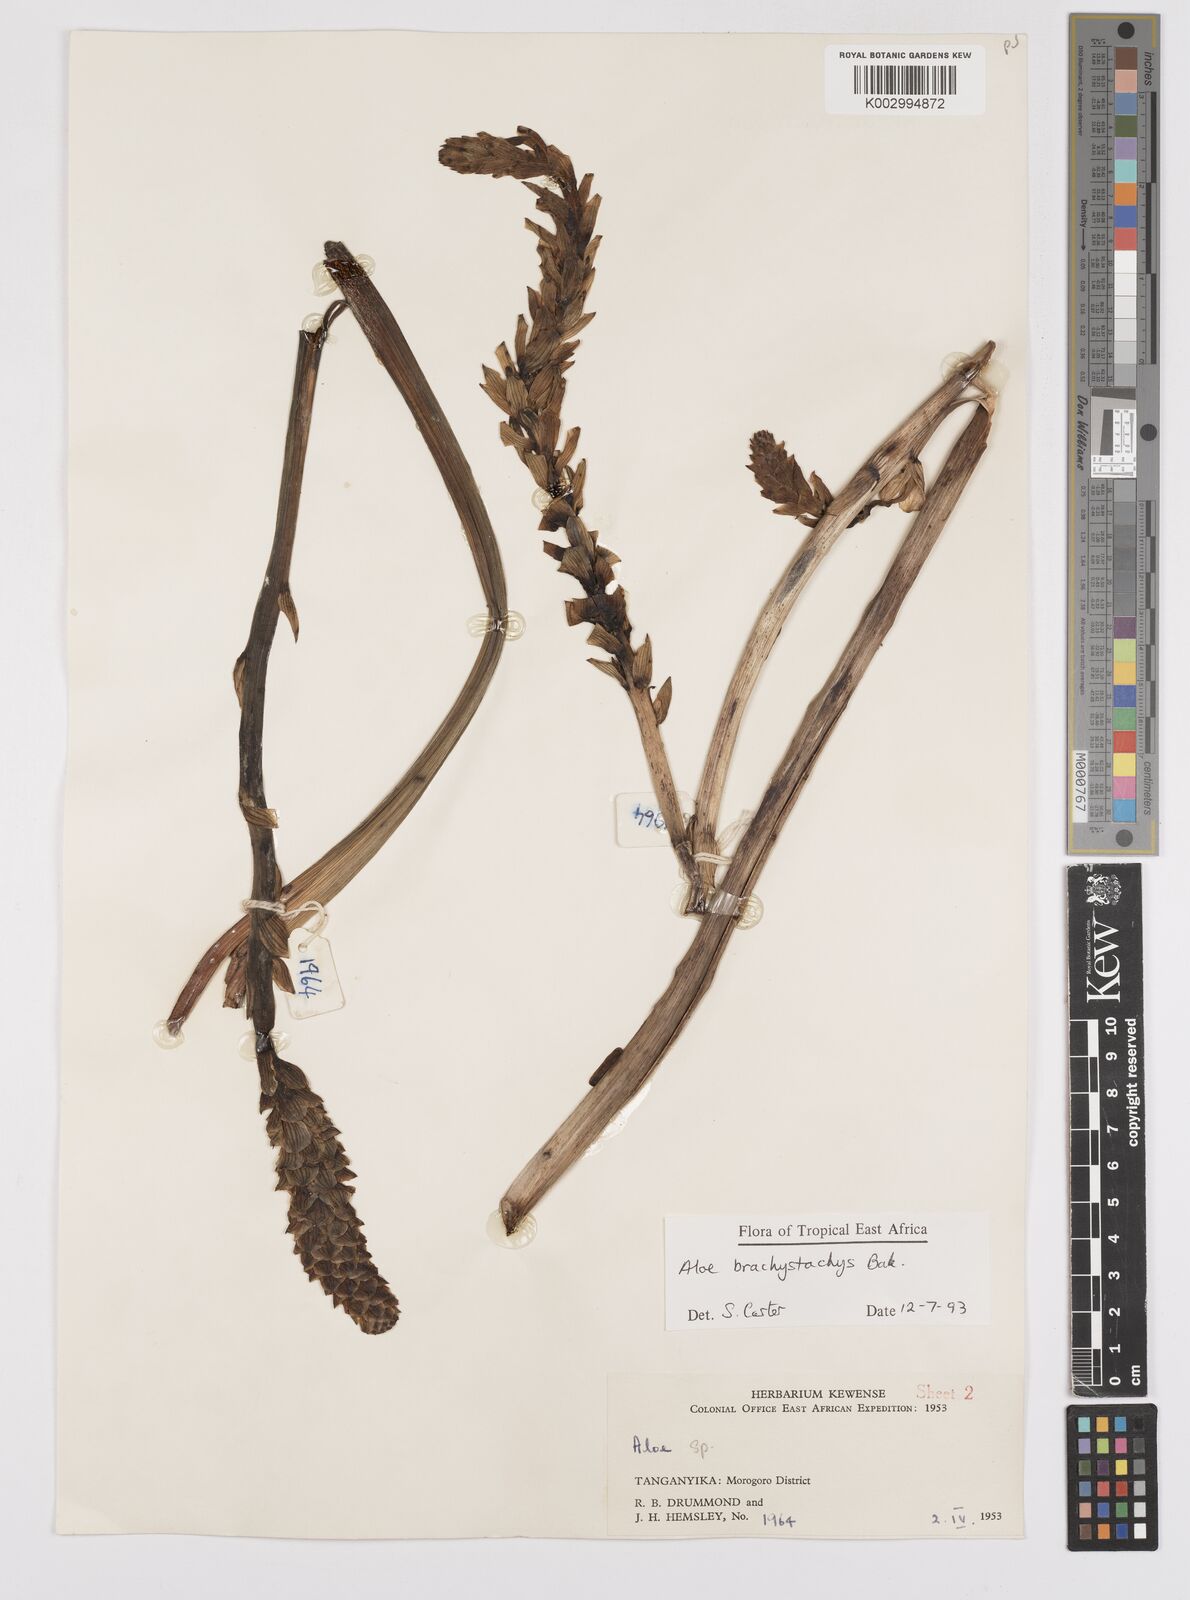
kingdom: Plantae
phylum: Tracheophyta
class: Liliopsida
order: Asparagales
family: Asphodelaceae
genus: Aloe
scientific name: Aloe brachystachys
